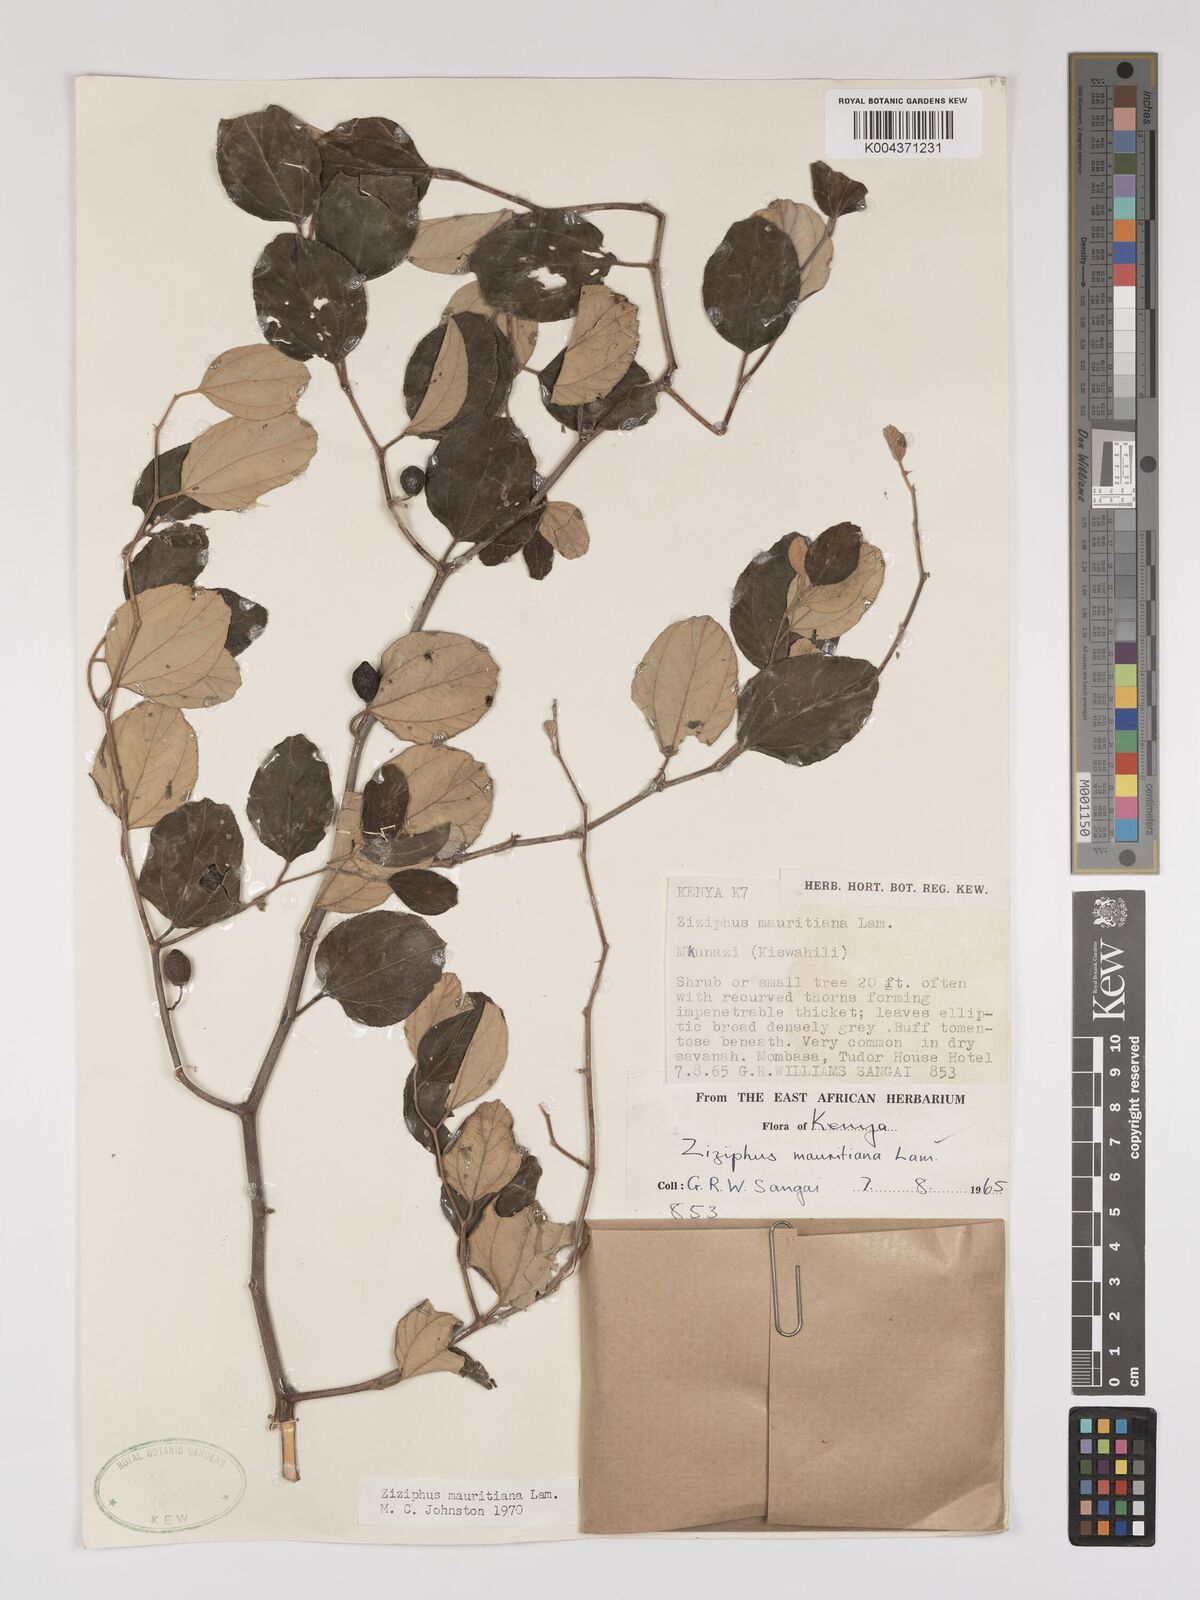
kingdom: Plantae
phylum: Tracheophyta
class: Magnoliopsida
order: Rosales
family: Rhamnaceae
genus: Ziziphus
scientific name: Ziziphus mauritiana
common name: Indian jujube
